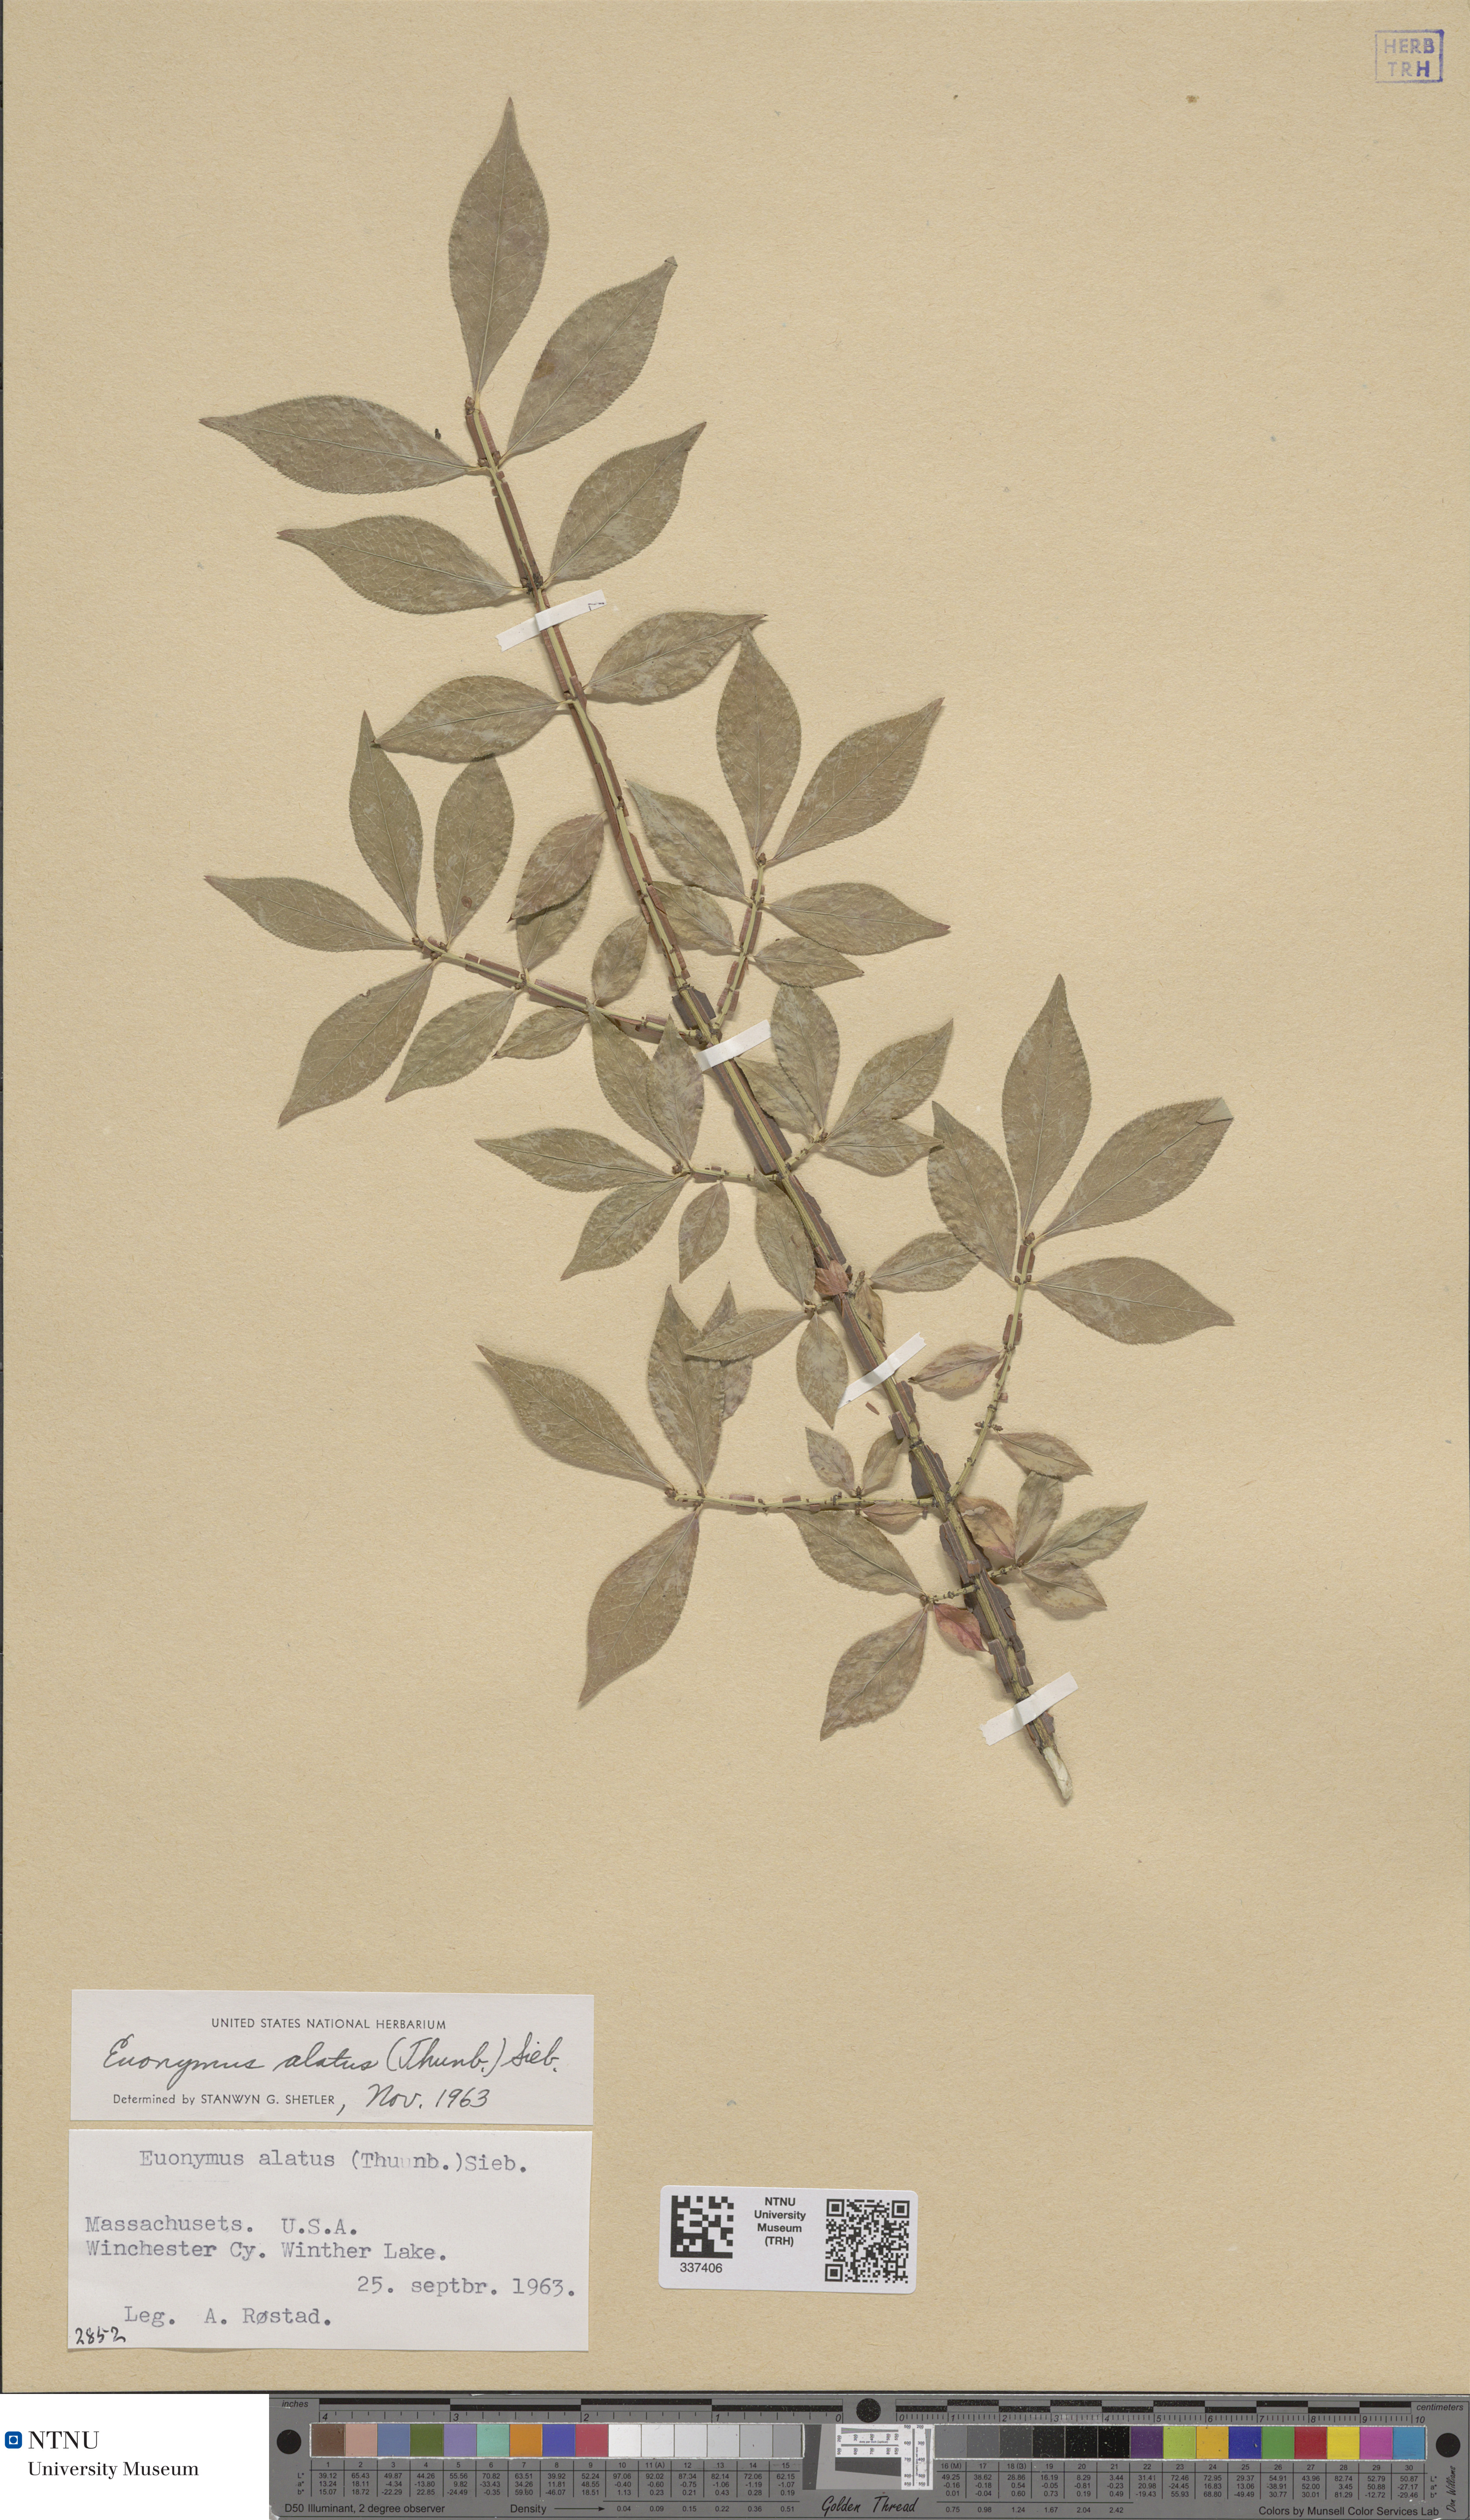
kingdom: Plantae
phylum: Tracheophyta
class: Magnoliopsida
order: Celastrales
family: Celastraceae
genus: Euonymus
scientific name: Euonymus alatus
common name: Winged euonymus
